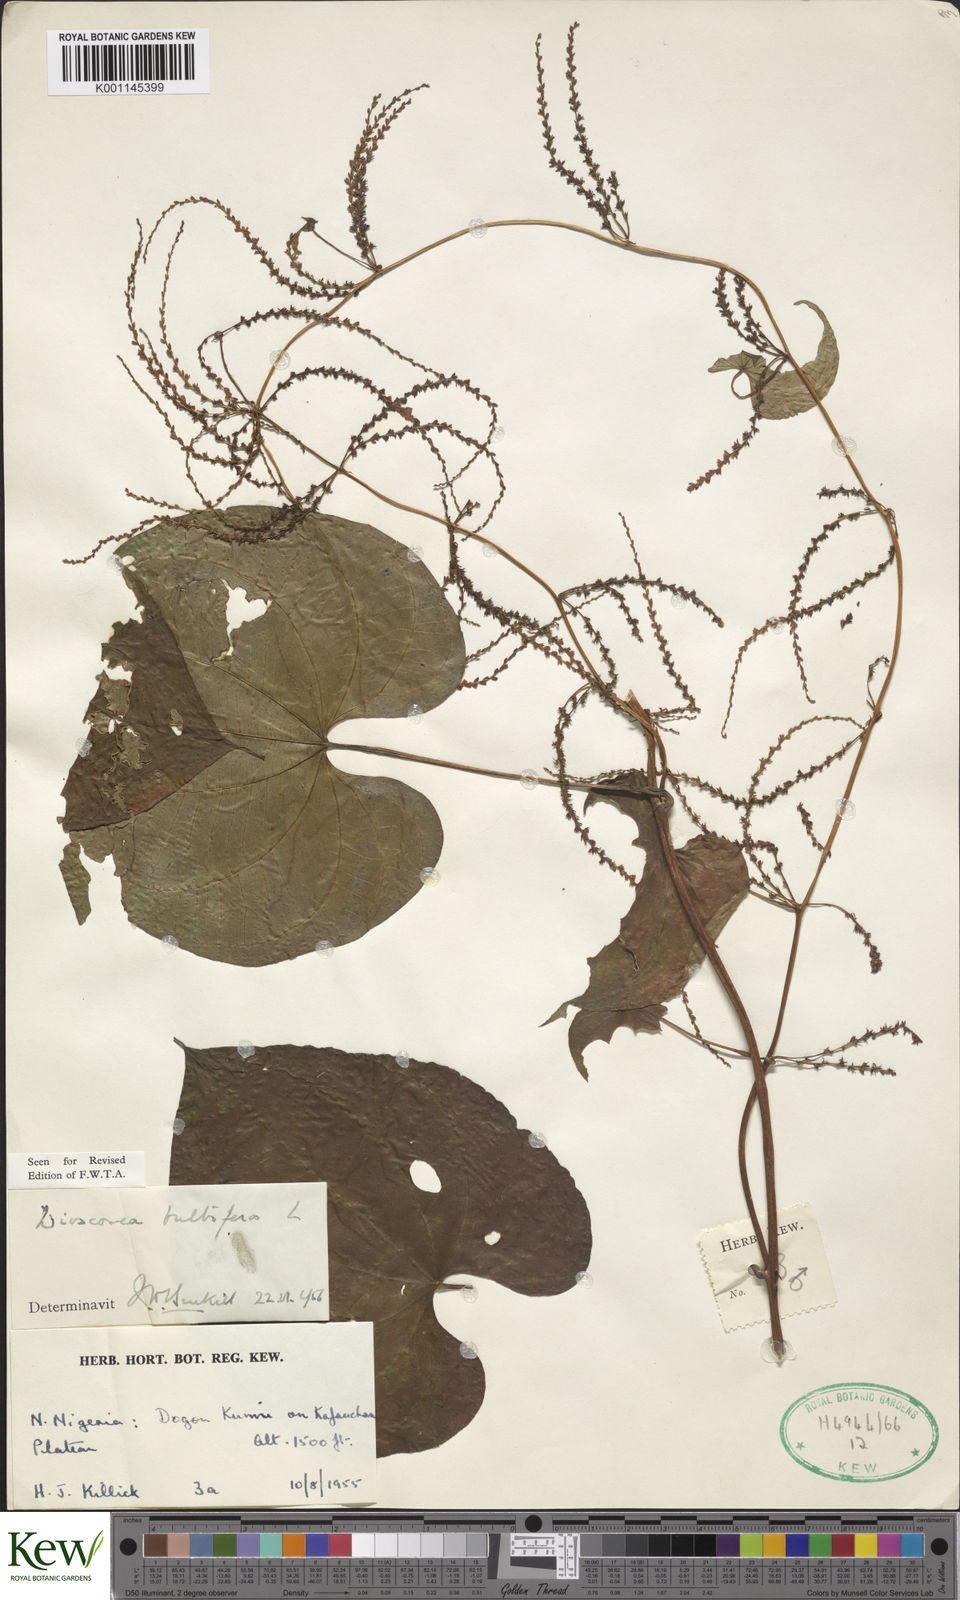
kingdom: Plantae
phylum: Tracheophyta
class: Liliopsida
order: Dioscoreales
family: Dioscoreaceae
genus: Dioscorea
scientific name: Dioscorea bulbifera
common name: Air yam
